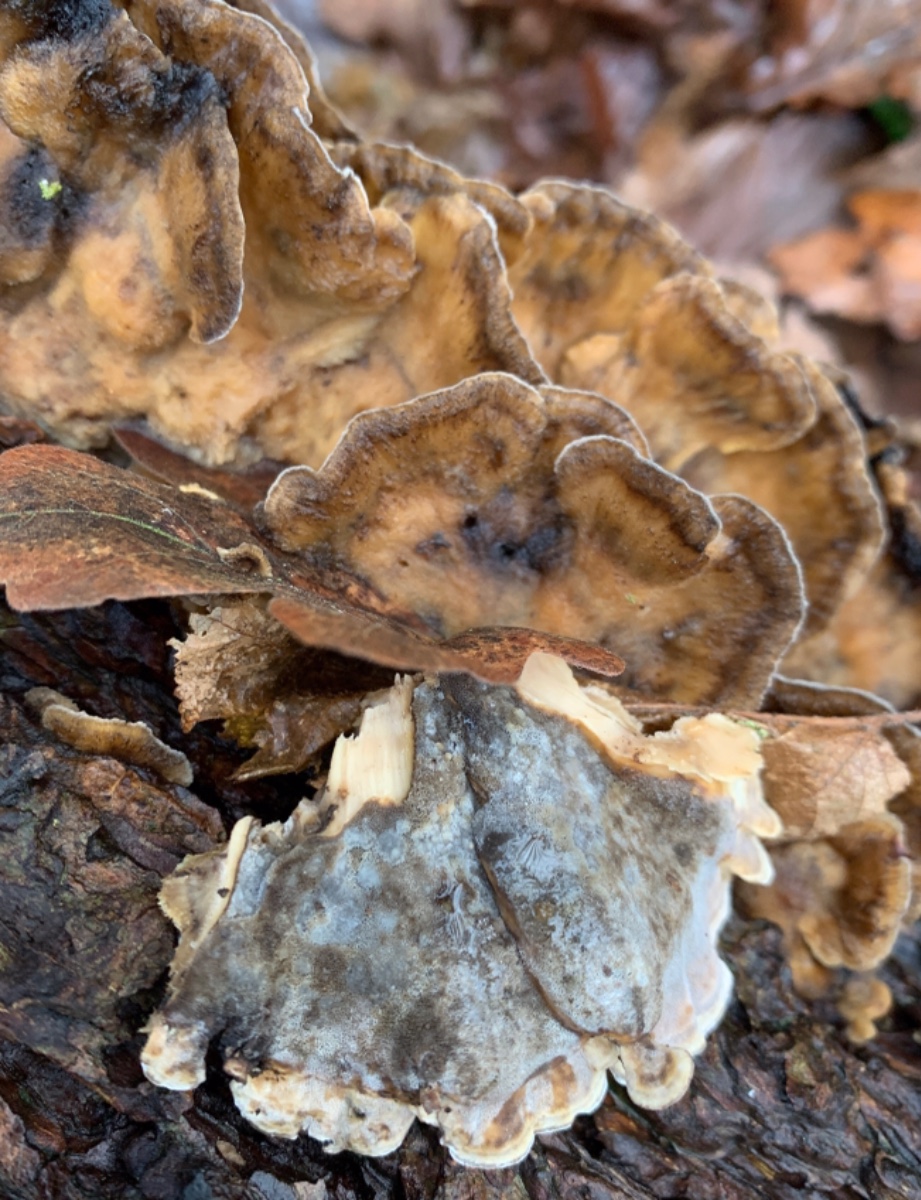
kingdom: Fungi
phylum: Basidiomycota
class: Agaricomycetes
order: Polyporales
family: Phanerochaetaceae
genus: Bjerkandera
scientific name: Bjerkandera adusta
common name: sveden sodporesvamp
